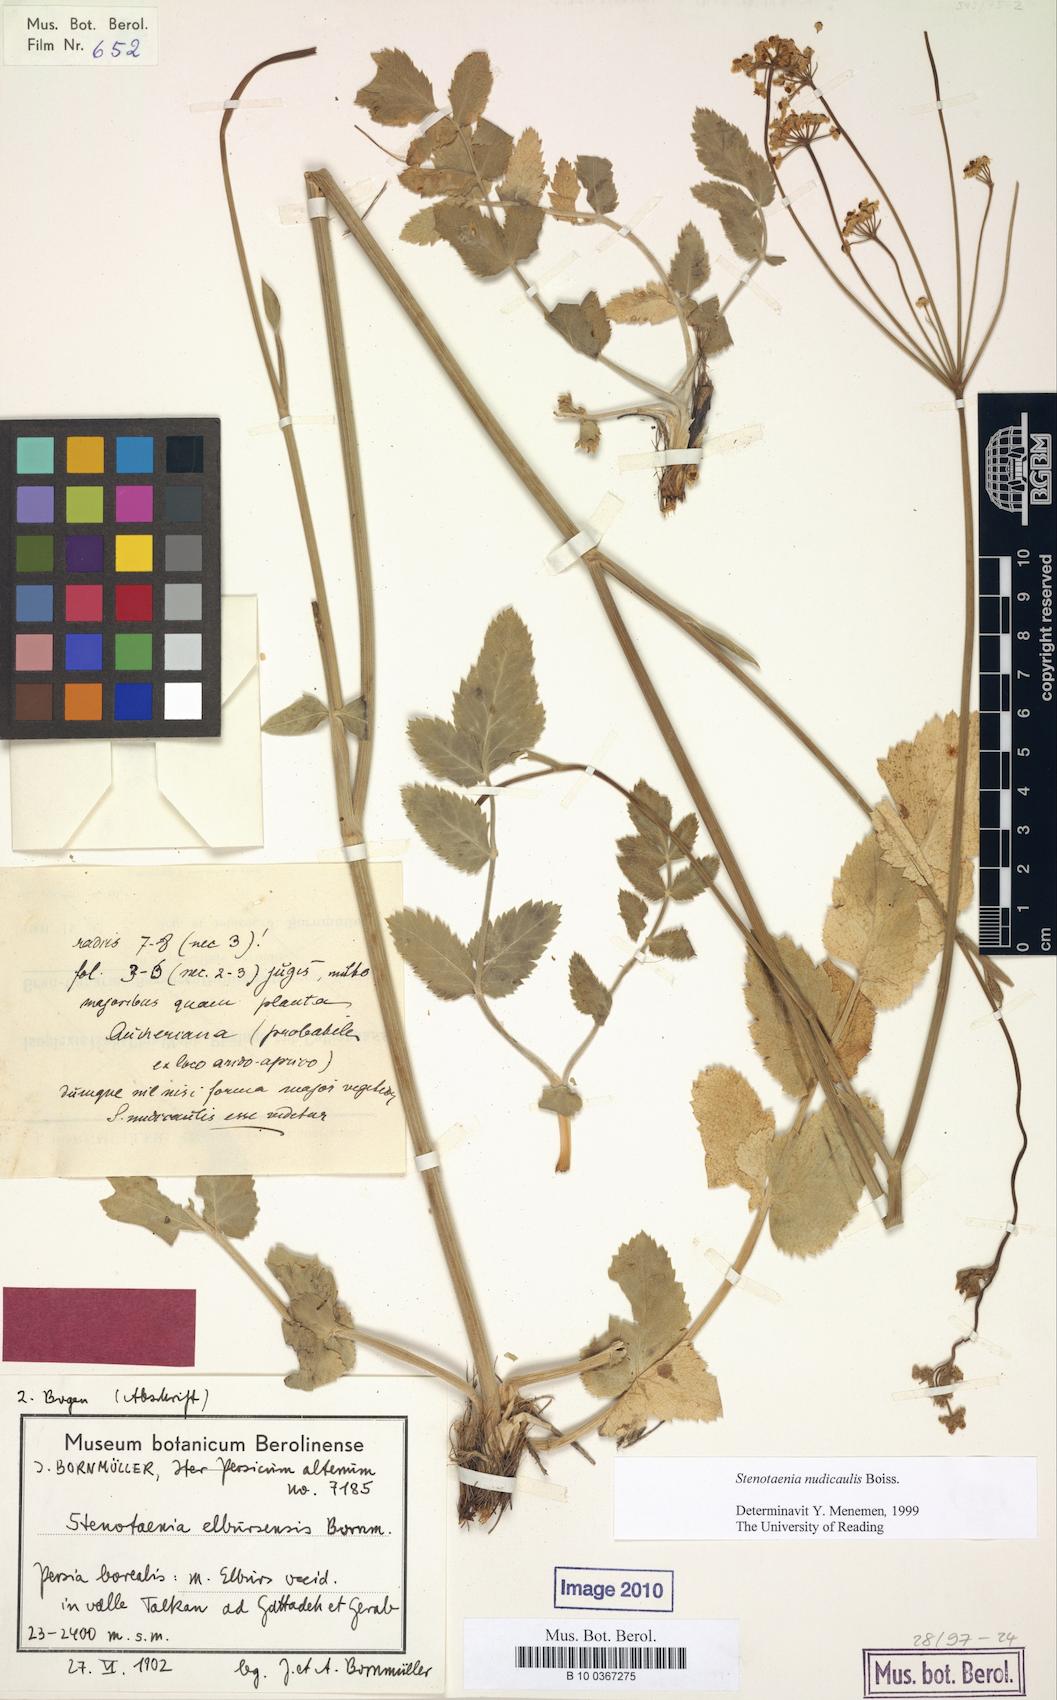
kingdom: Plantae
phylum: Tracheophyta
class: Magnoliopsida
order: Apiales
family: Apiaceae
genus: Stenotaenia
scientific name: Stenotaenia nudicaulis
